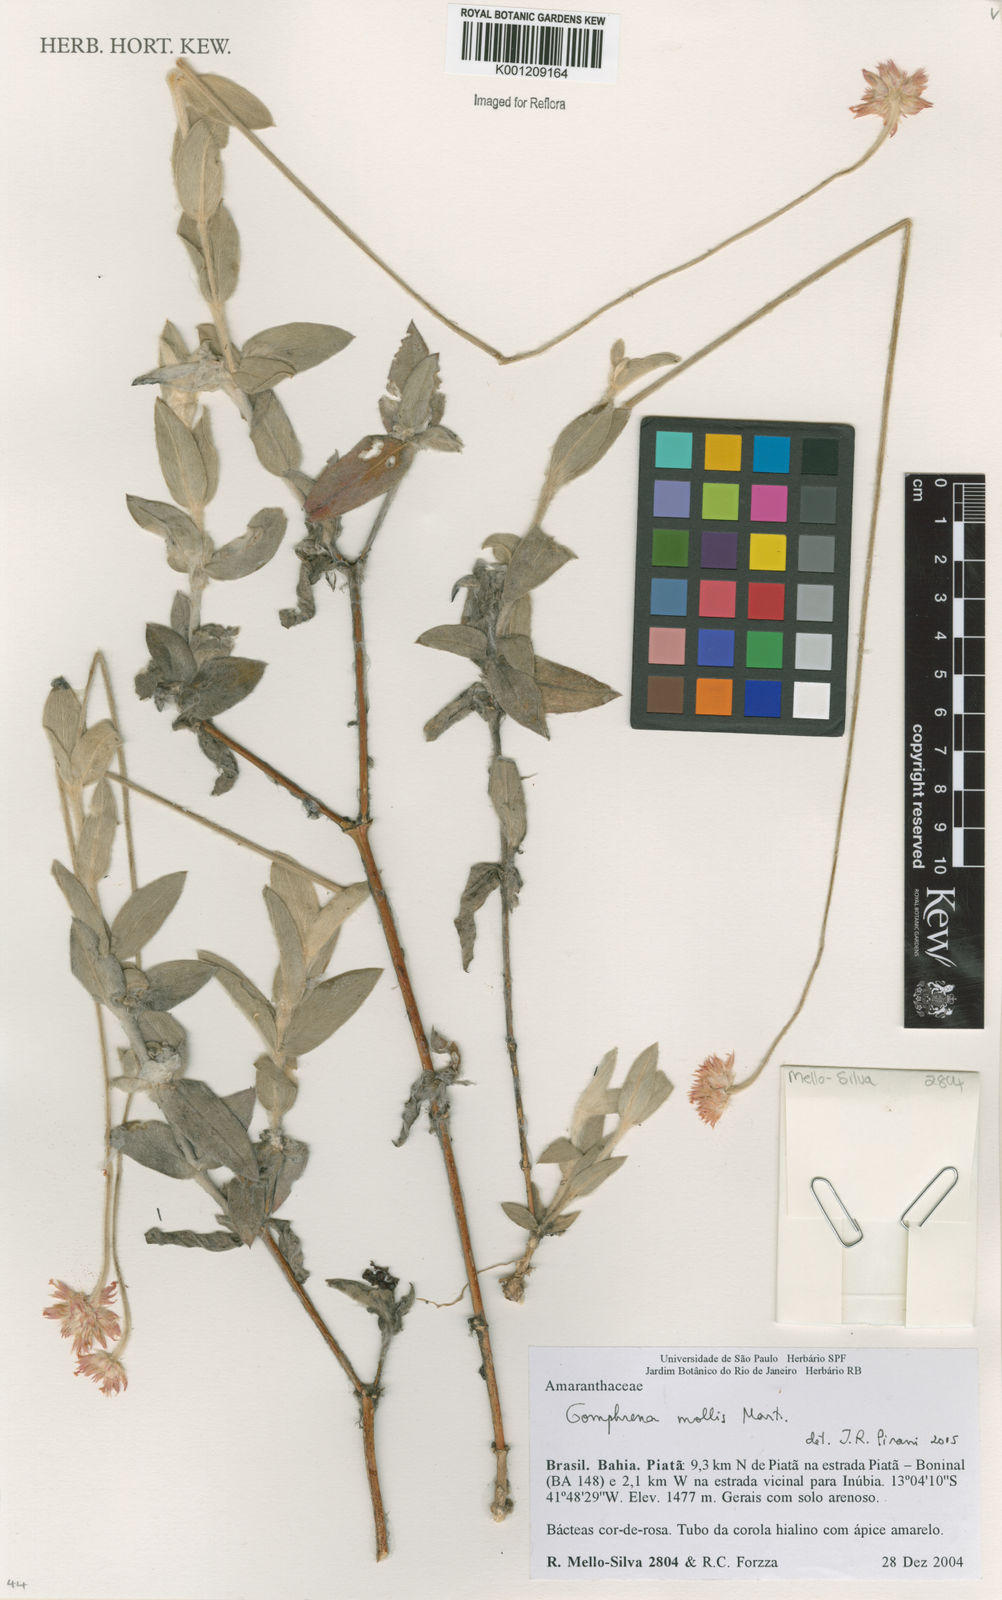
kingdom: Plantae
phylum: Tracheophyta
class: Magnoliopsida
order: Caryophyllales
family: Amaranthaceae
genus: Gomphrena
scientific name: Gomphrena mollis
